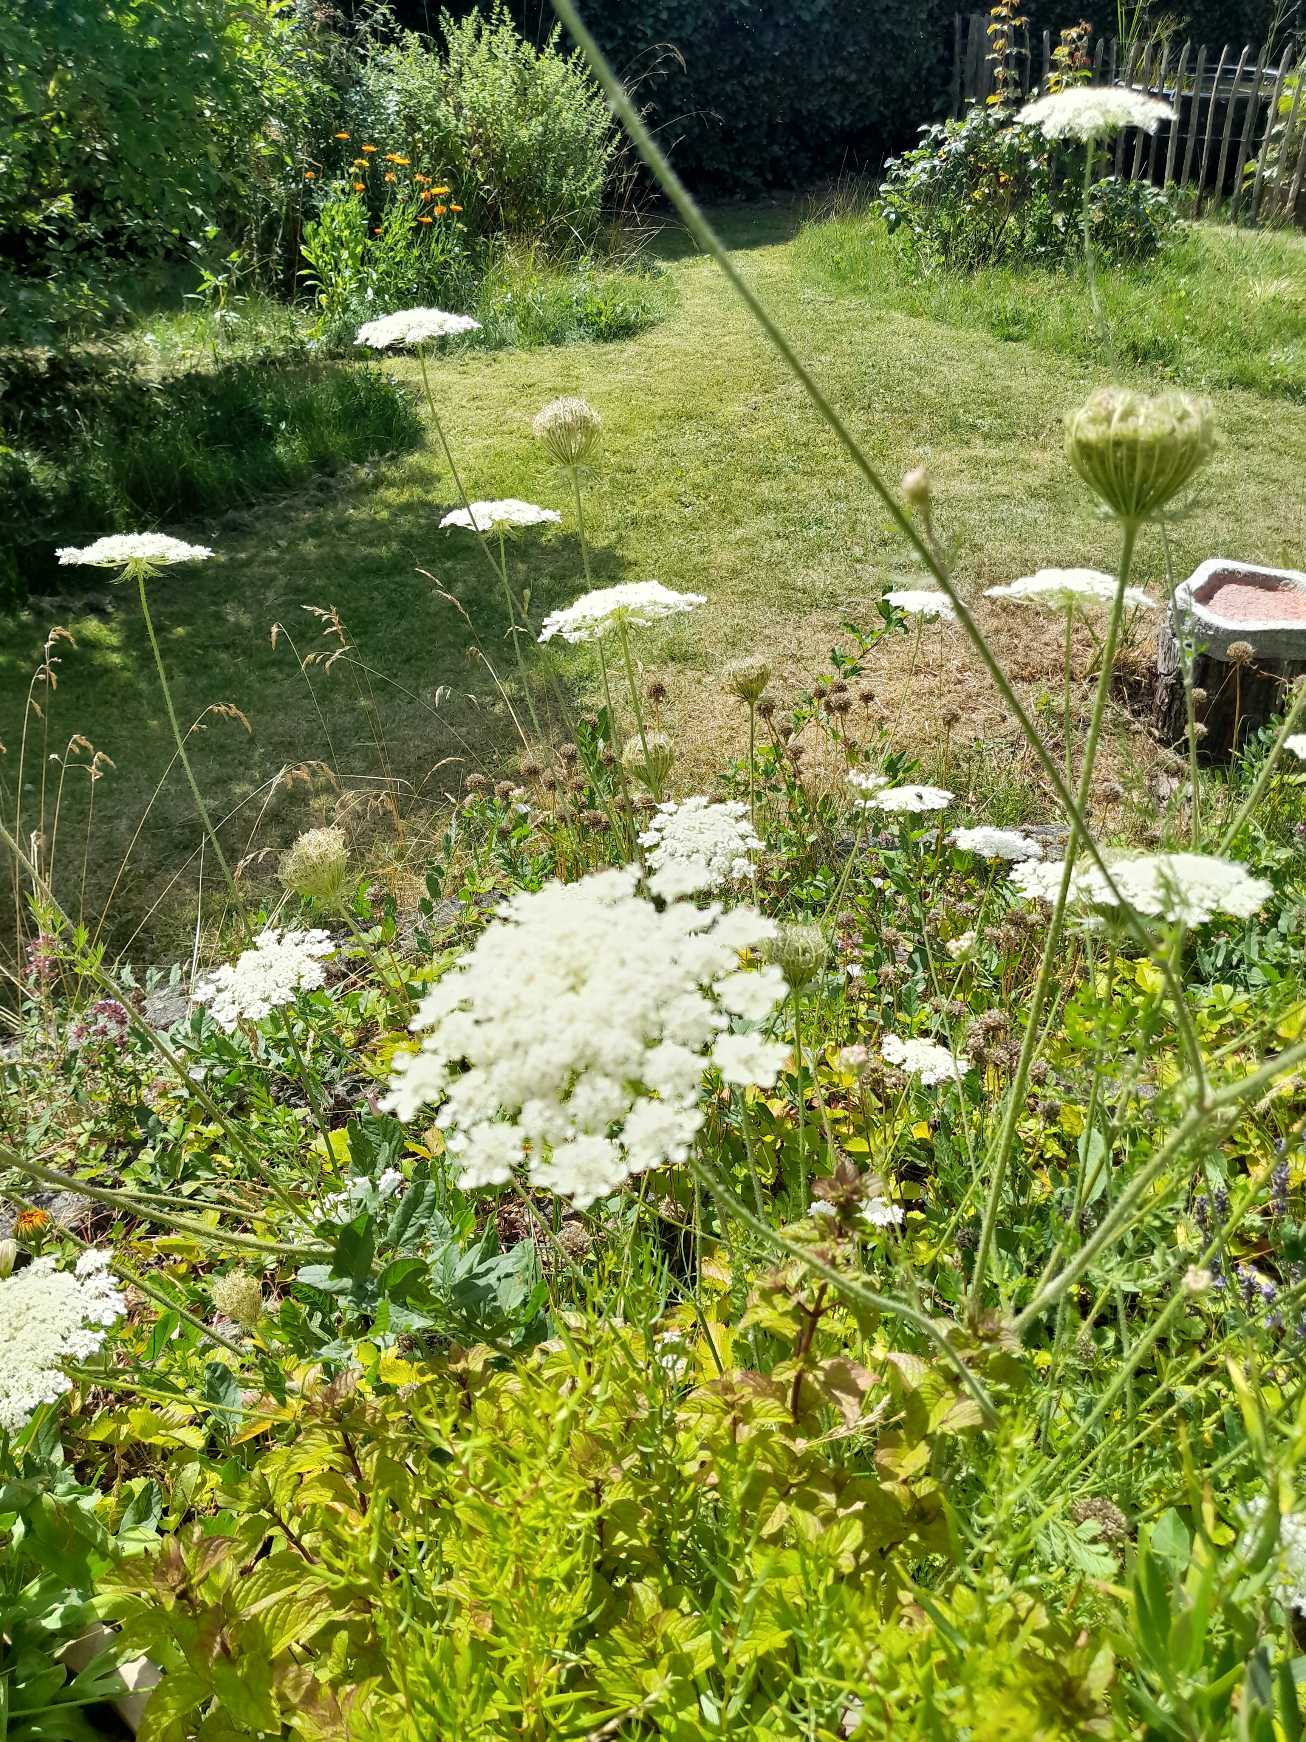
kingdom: Plantae
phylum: Tracheophyta
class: Magnoliopsida
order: Apiales
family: Apiaceae
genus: Daucus
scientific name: Daucus carota
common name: Gulerod
